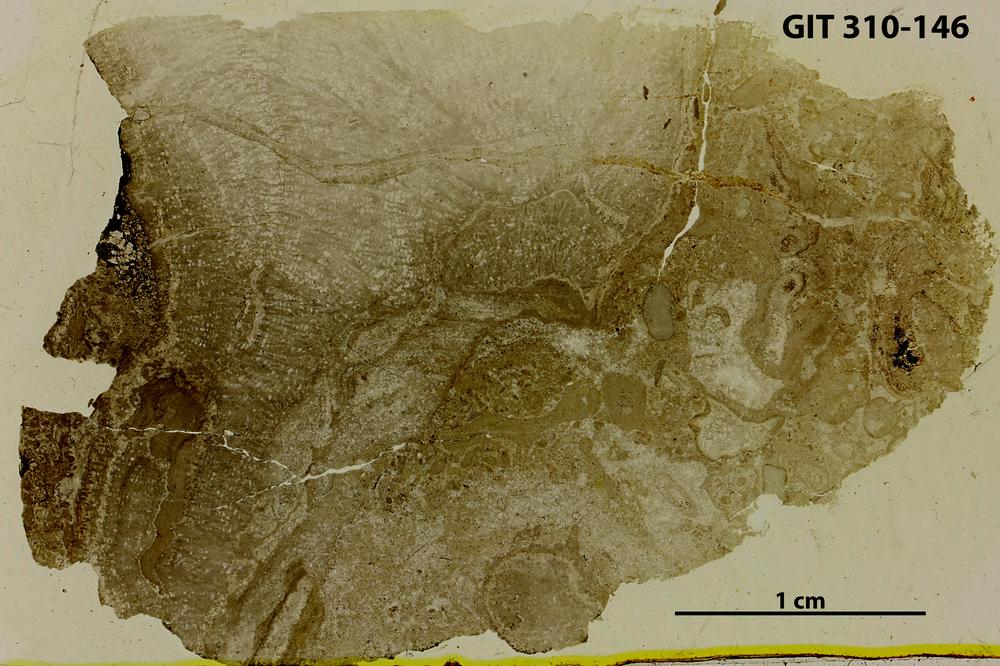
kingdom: Animalia
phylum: Porifera
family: Clathrodictyidae
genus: Labechiina
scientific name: Labechiina
